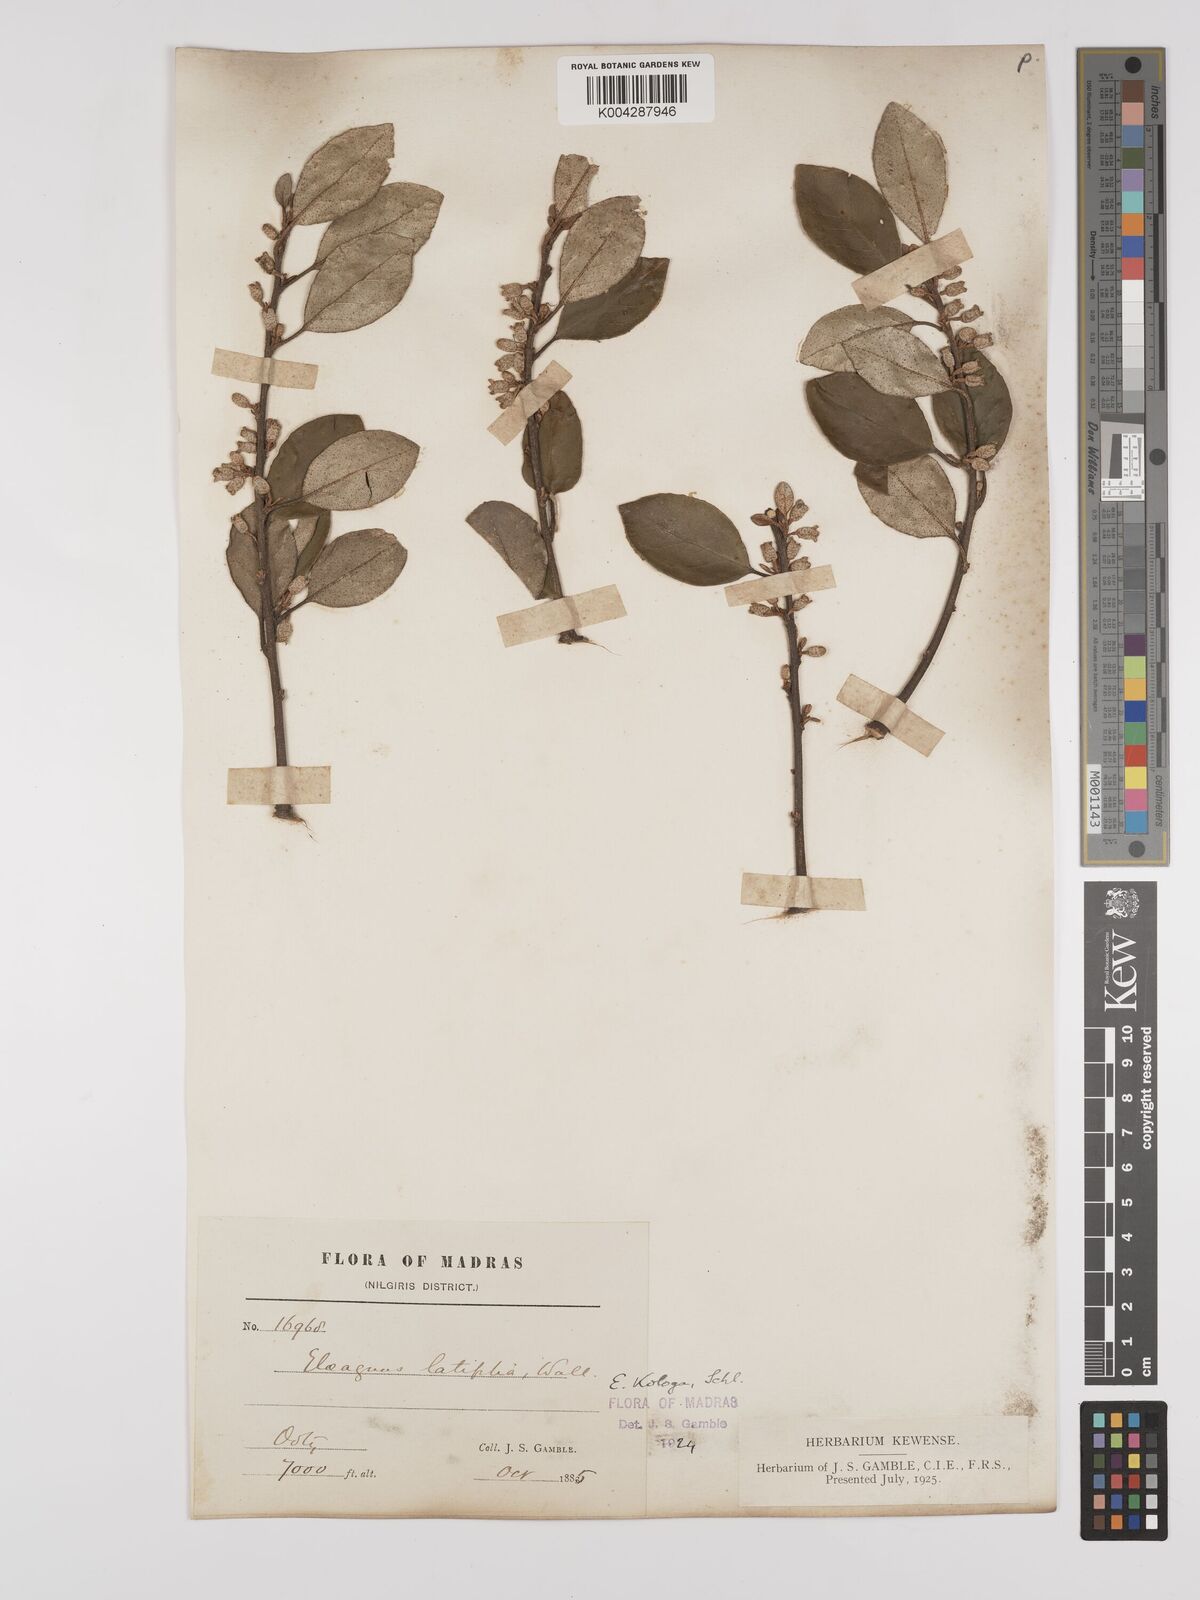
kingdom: Plantae
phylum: Tracheophyta
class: Magnoliopsida
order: Rosales
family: Elaeagnaceae
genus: Elaeagnus
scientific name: Elaeagnus latifolia
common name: Oleaster
